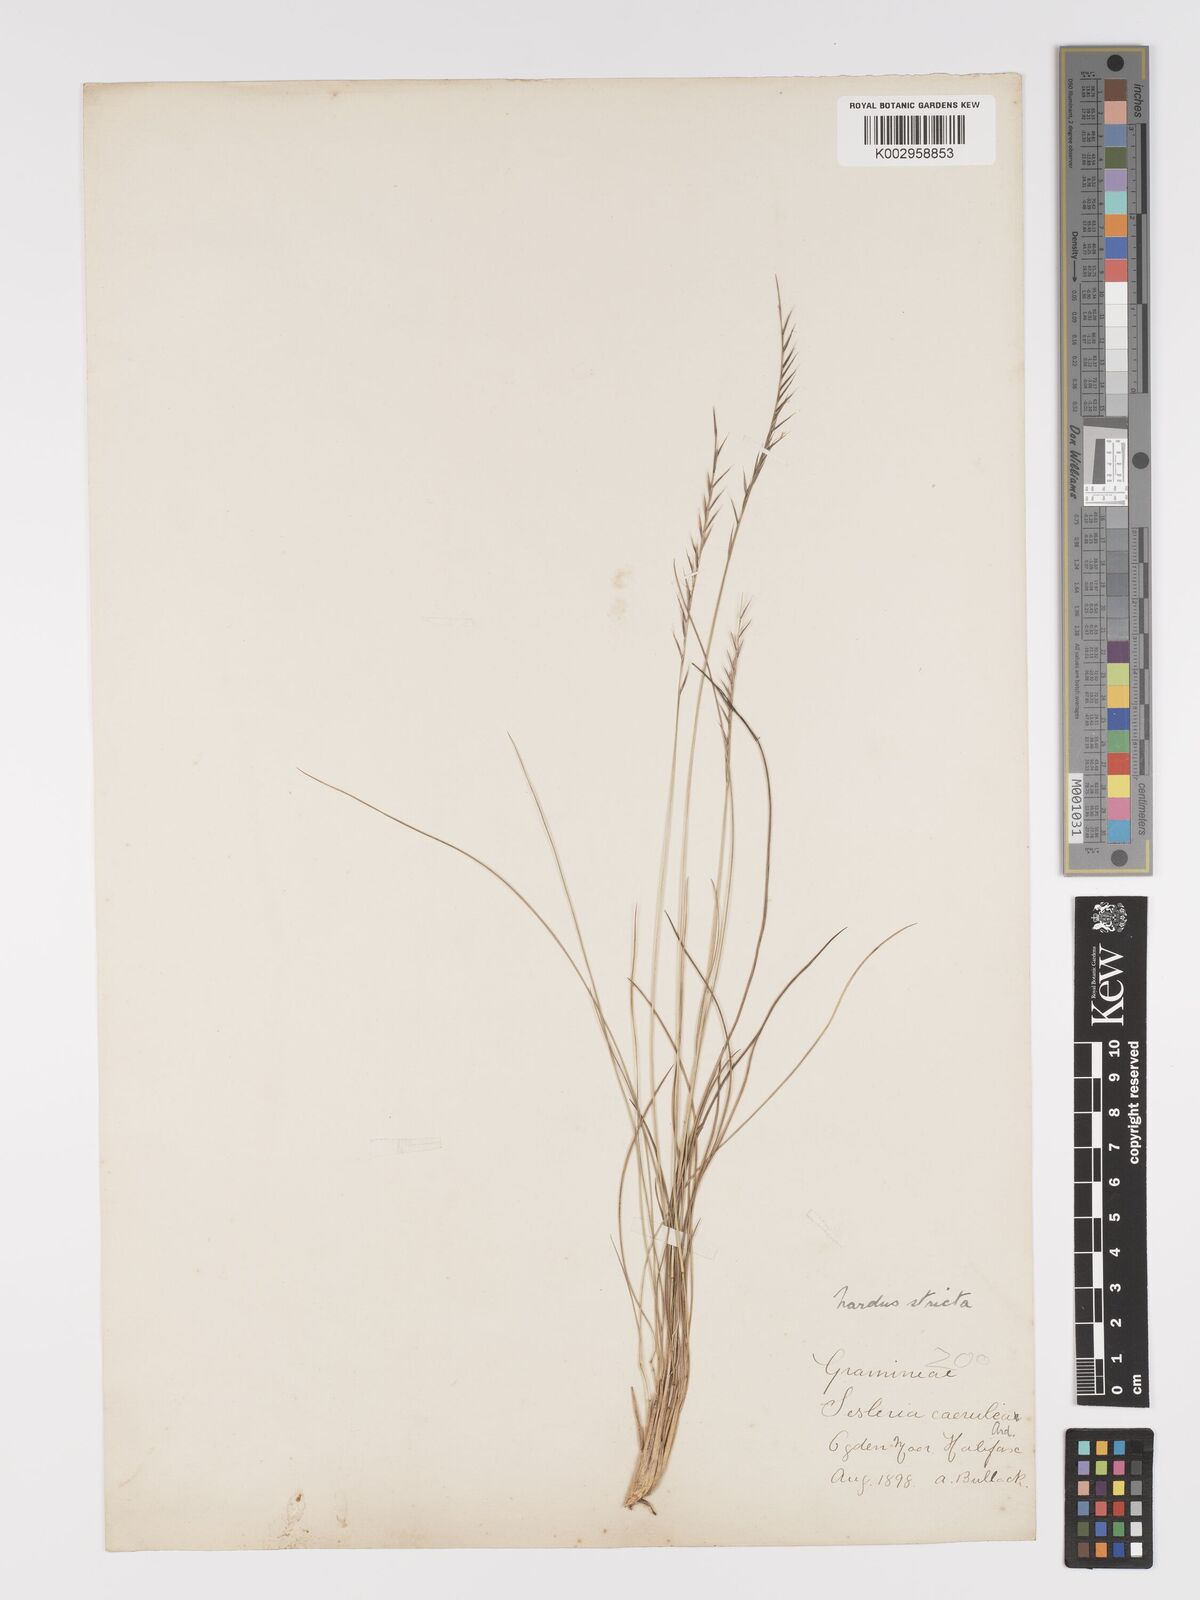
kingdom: Plantae
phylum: Tracheophyta
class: Liliopsida
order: Poales
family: Poaceae
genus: Nardus
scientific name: Nardus stricta
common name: Mat-grass
